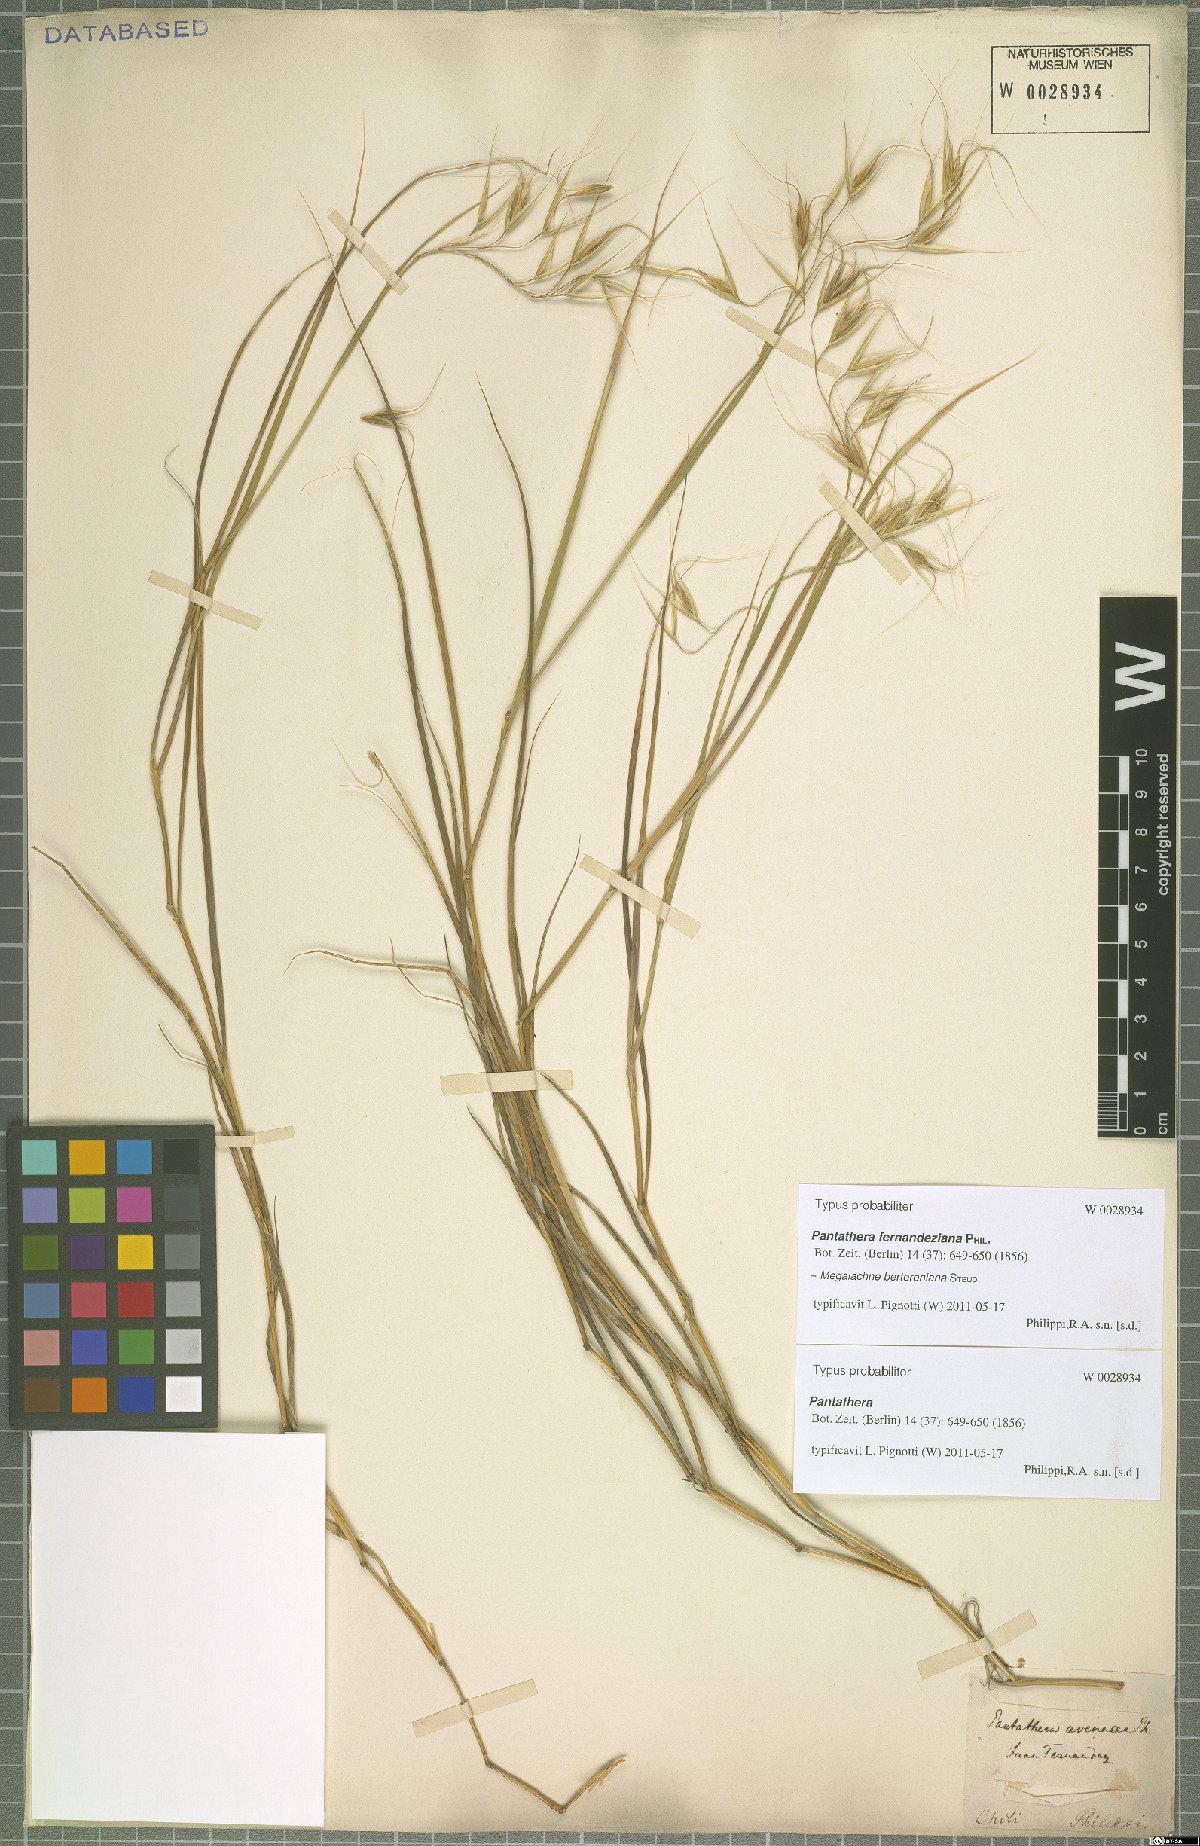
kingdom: Plantae
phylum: Tracheophyta
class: Liliopsida
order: Poales
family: Poaceae
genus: Megalachne
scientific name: Megalachne berteroniana
